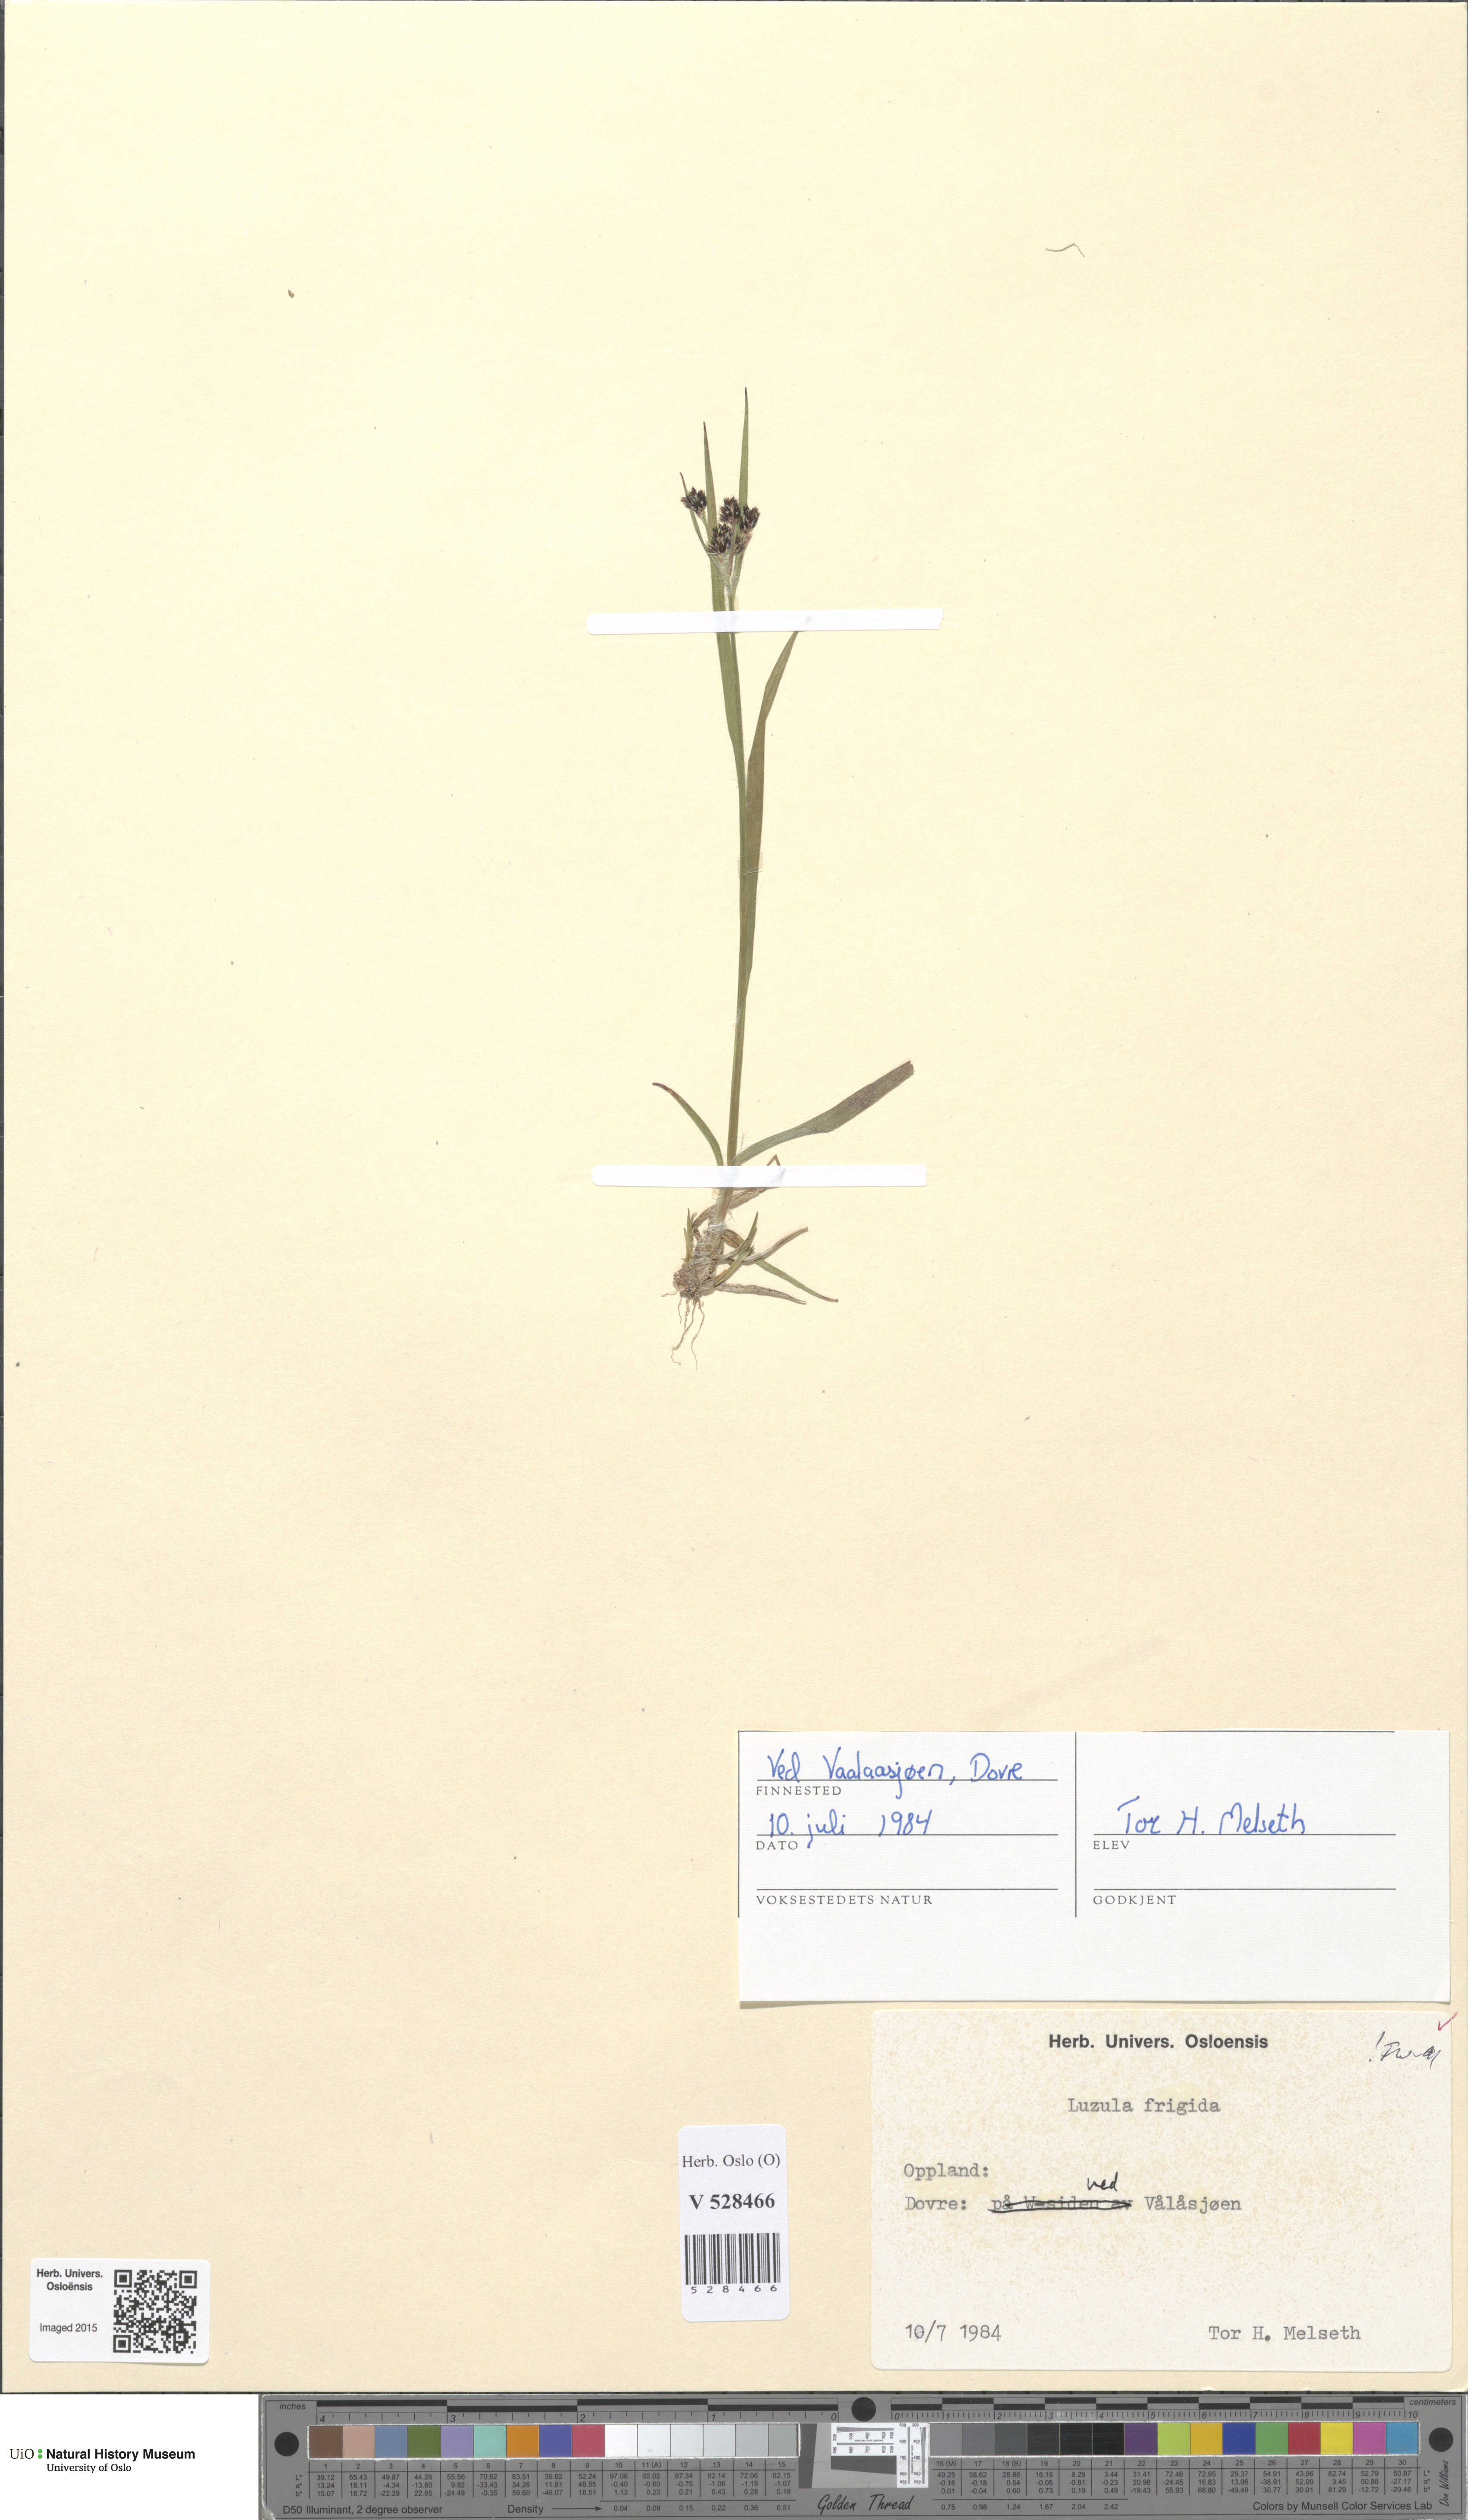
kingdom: Plantae
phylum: Tracheophyta
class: Liliopsida
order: Poales
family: Juncaceae
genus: Luzula
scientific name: Luzula multiflora
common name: Heath wood-rush
